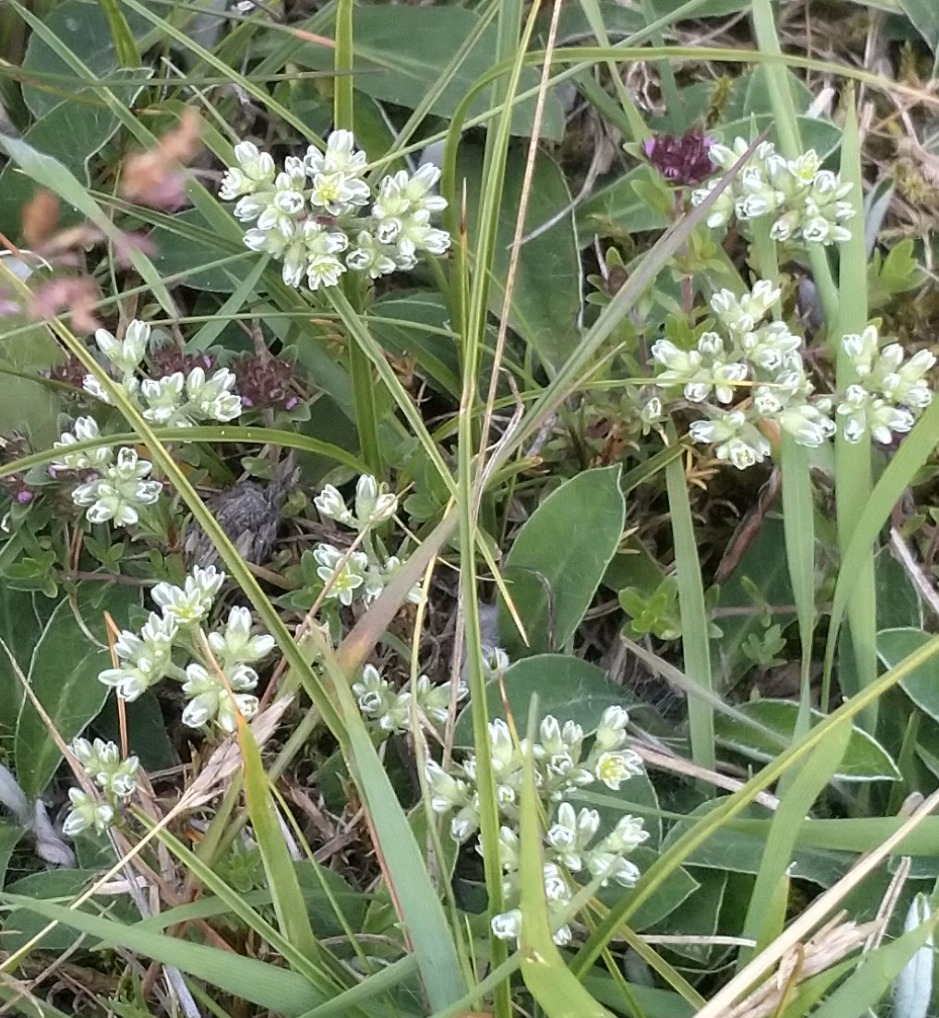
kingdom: Plantae
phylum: Tracheophyta
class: Magnoliopsida
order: Caryophyllales
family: Caryophyllaceae
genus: Scleranthus
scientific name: Scleranthus perennis
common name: Flerårig knavel
